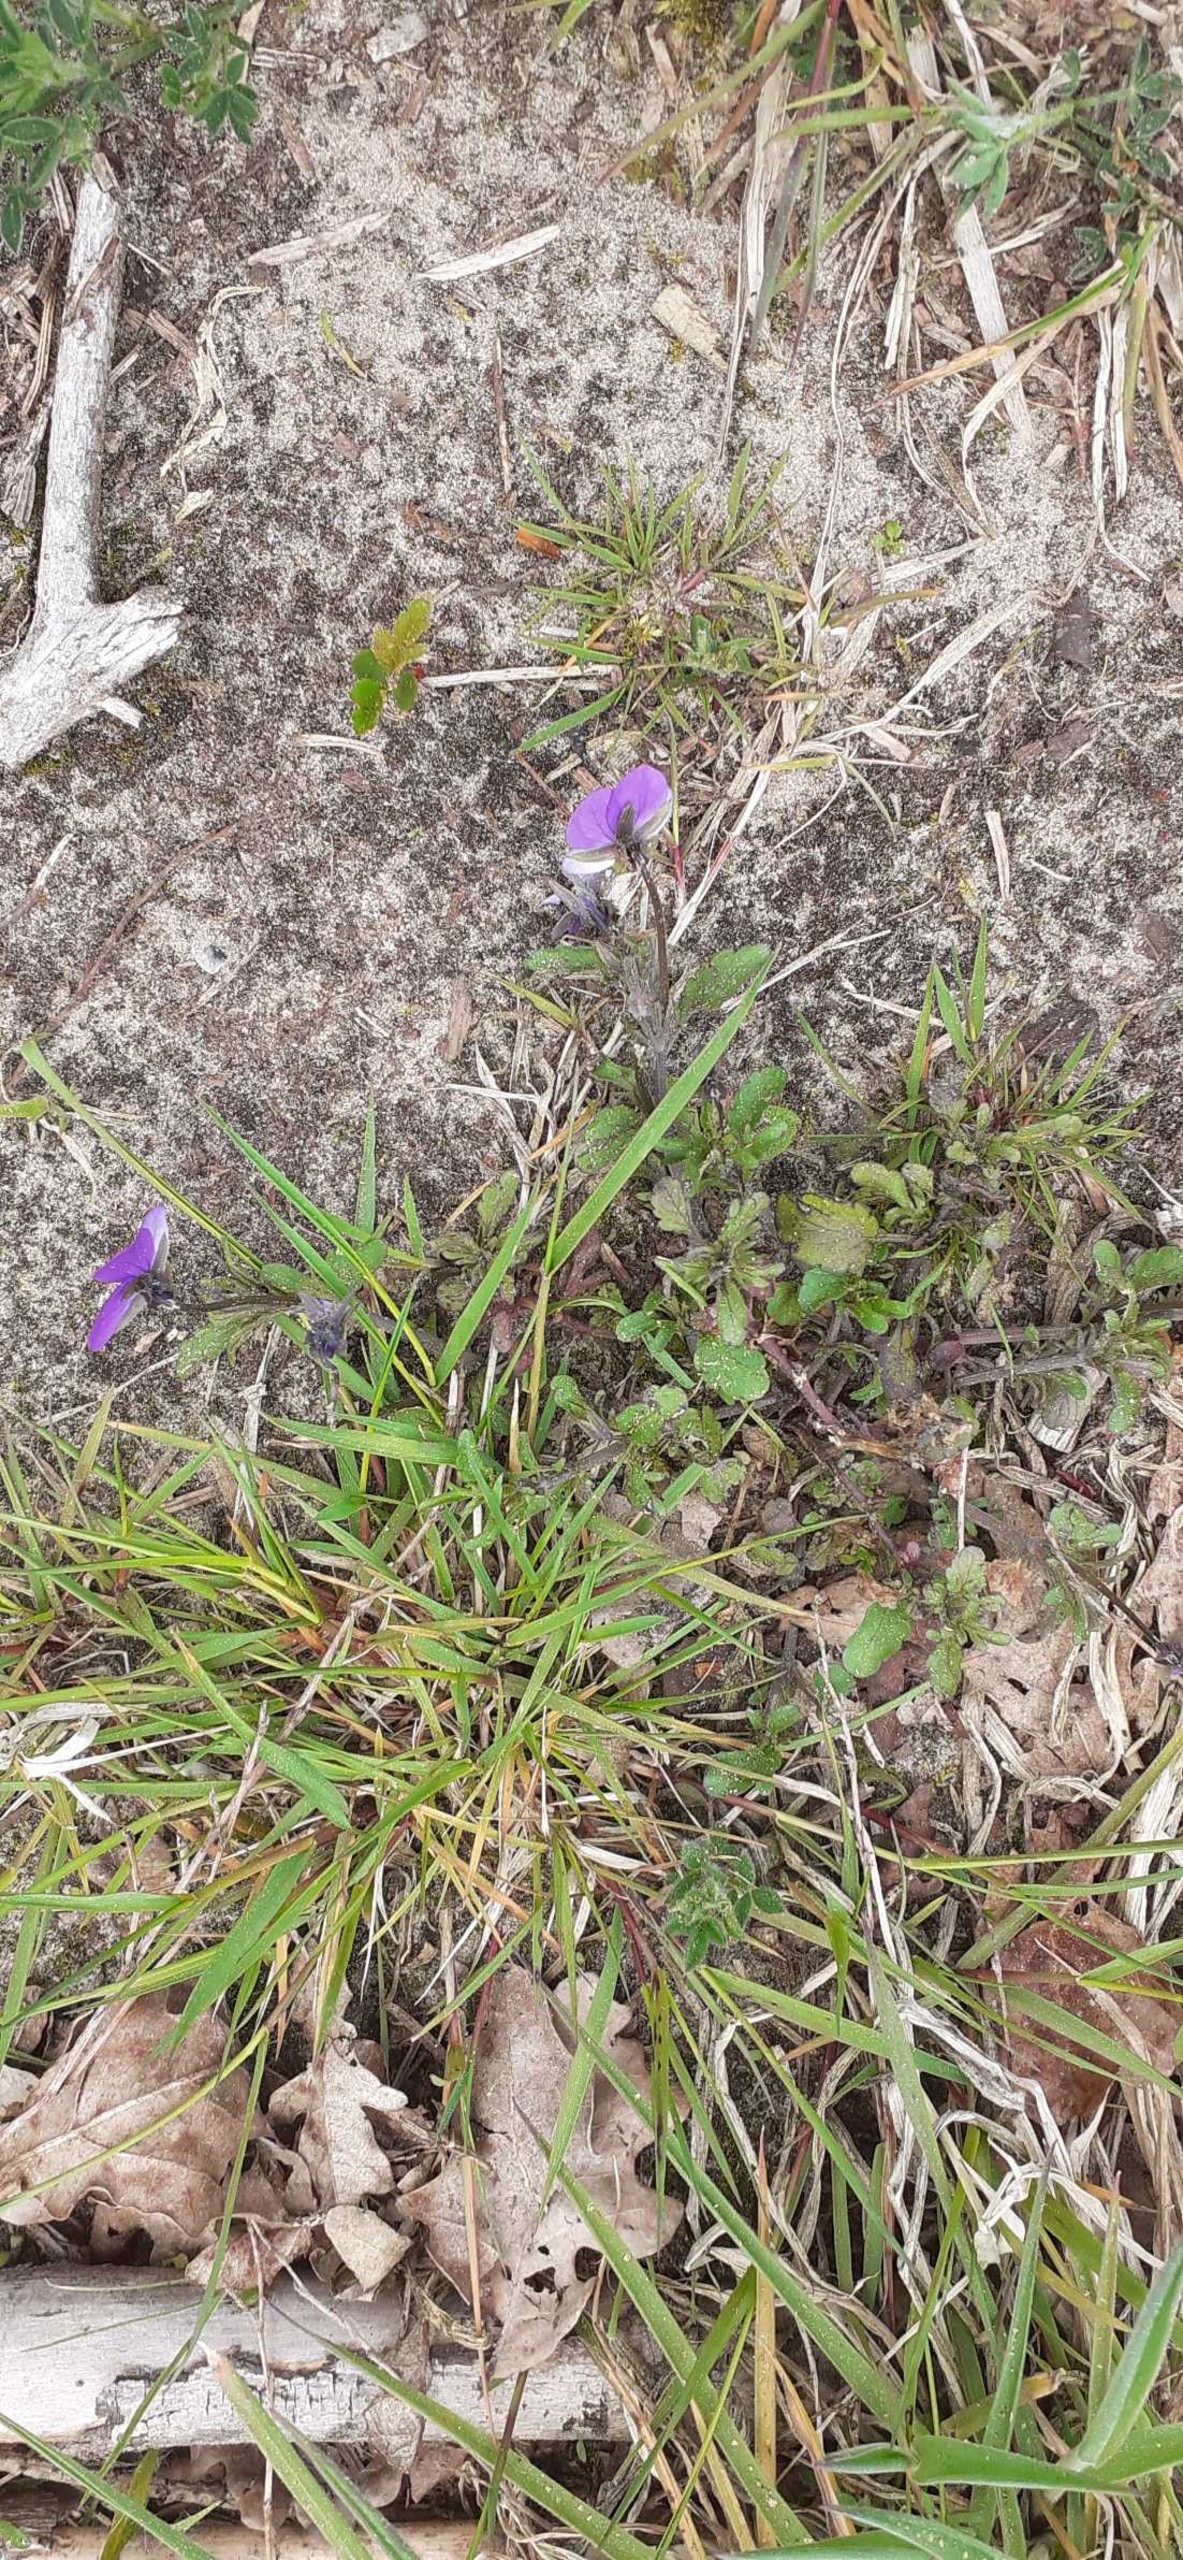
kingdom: Plantae
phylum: Tracheophyta
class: Magnoliopsida
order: Malpighiales
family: Violaceae
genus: Viola
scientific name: Viola tricolor
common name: Stedmoderblomst
